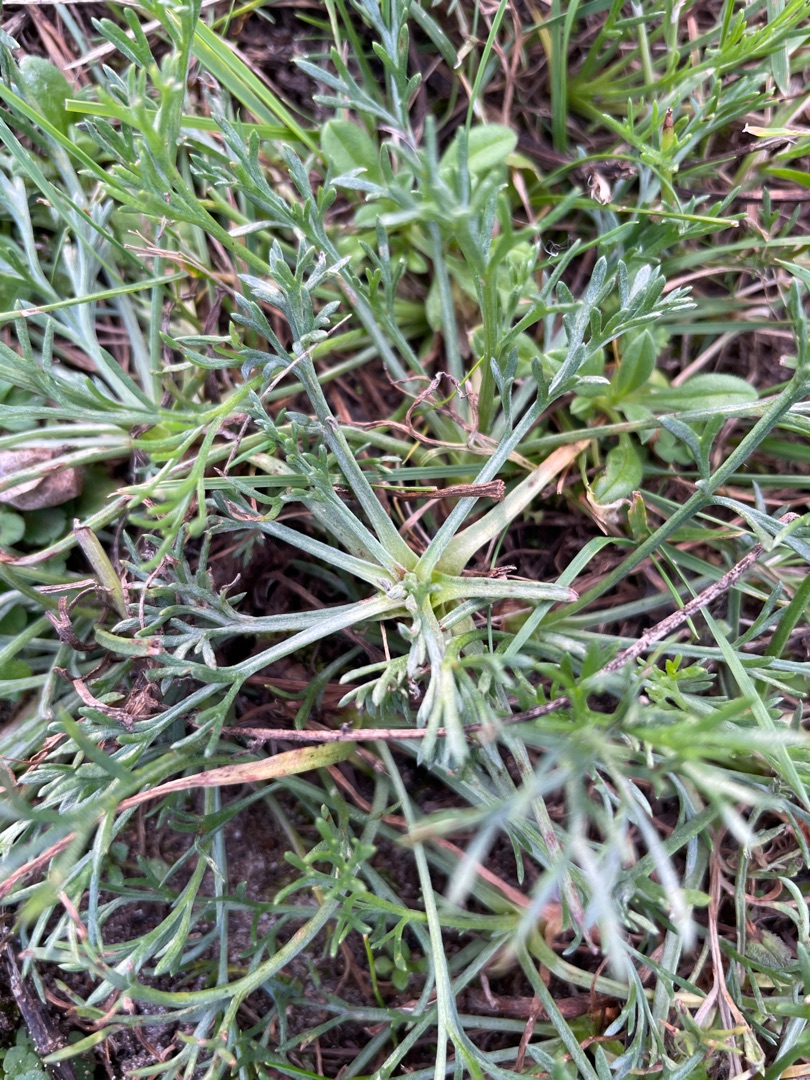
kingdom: Plantae
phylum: Tracheophyta
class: Magnoliopsida
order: Asterales
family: Asteraceae
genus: Artemisia
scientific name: Artemisia campestris
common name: Mark-bynke
